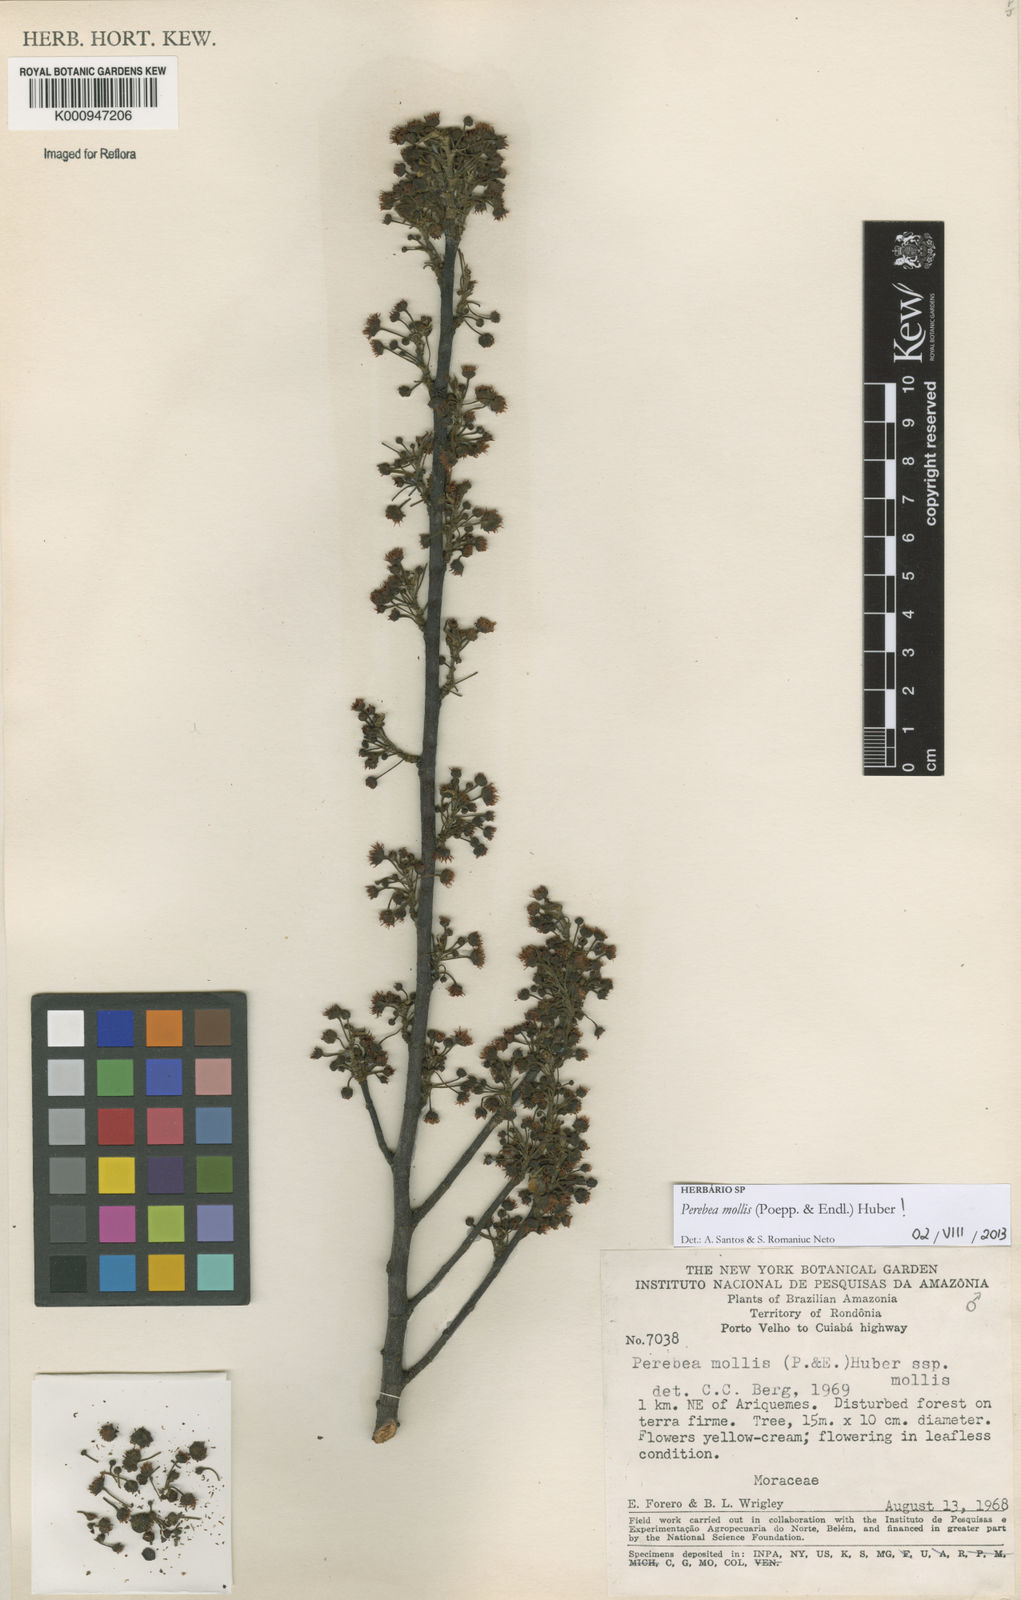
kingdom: Plantae
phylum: Tracheophyta
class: Magnoliopsida
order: Rosales
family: Moraceae
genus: Perebea
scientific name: Perebea mollis
